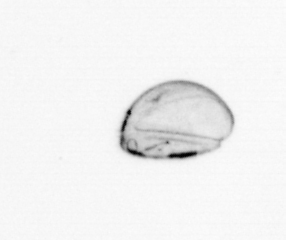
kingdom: Chromista
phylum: Ochrophyta
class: Bacillariophyceae
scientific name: Bacillariophyceae
